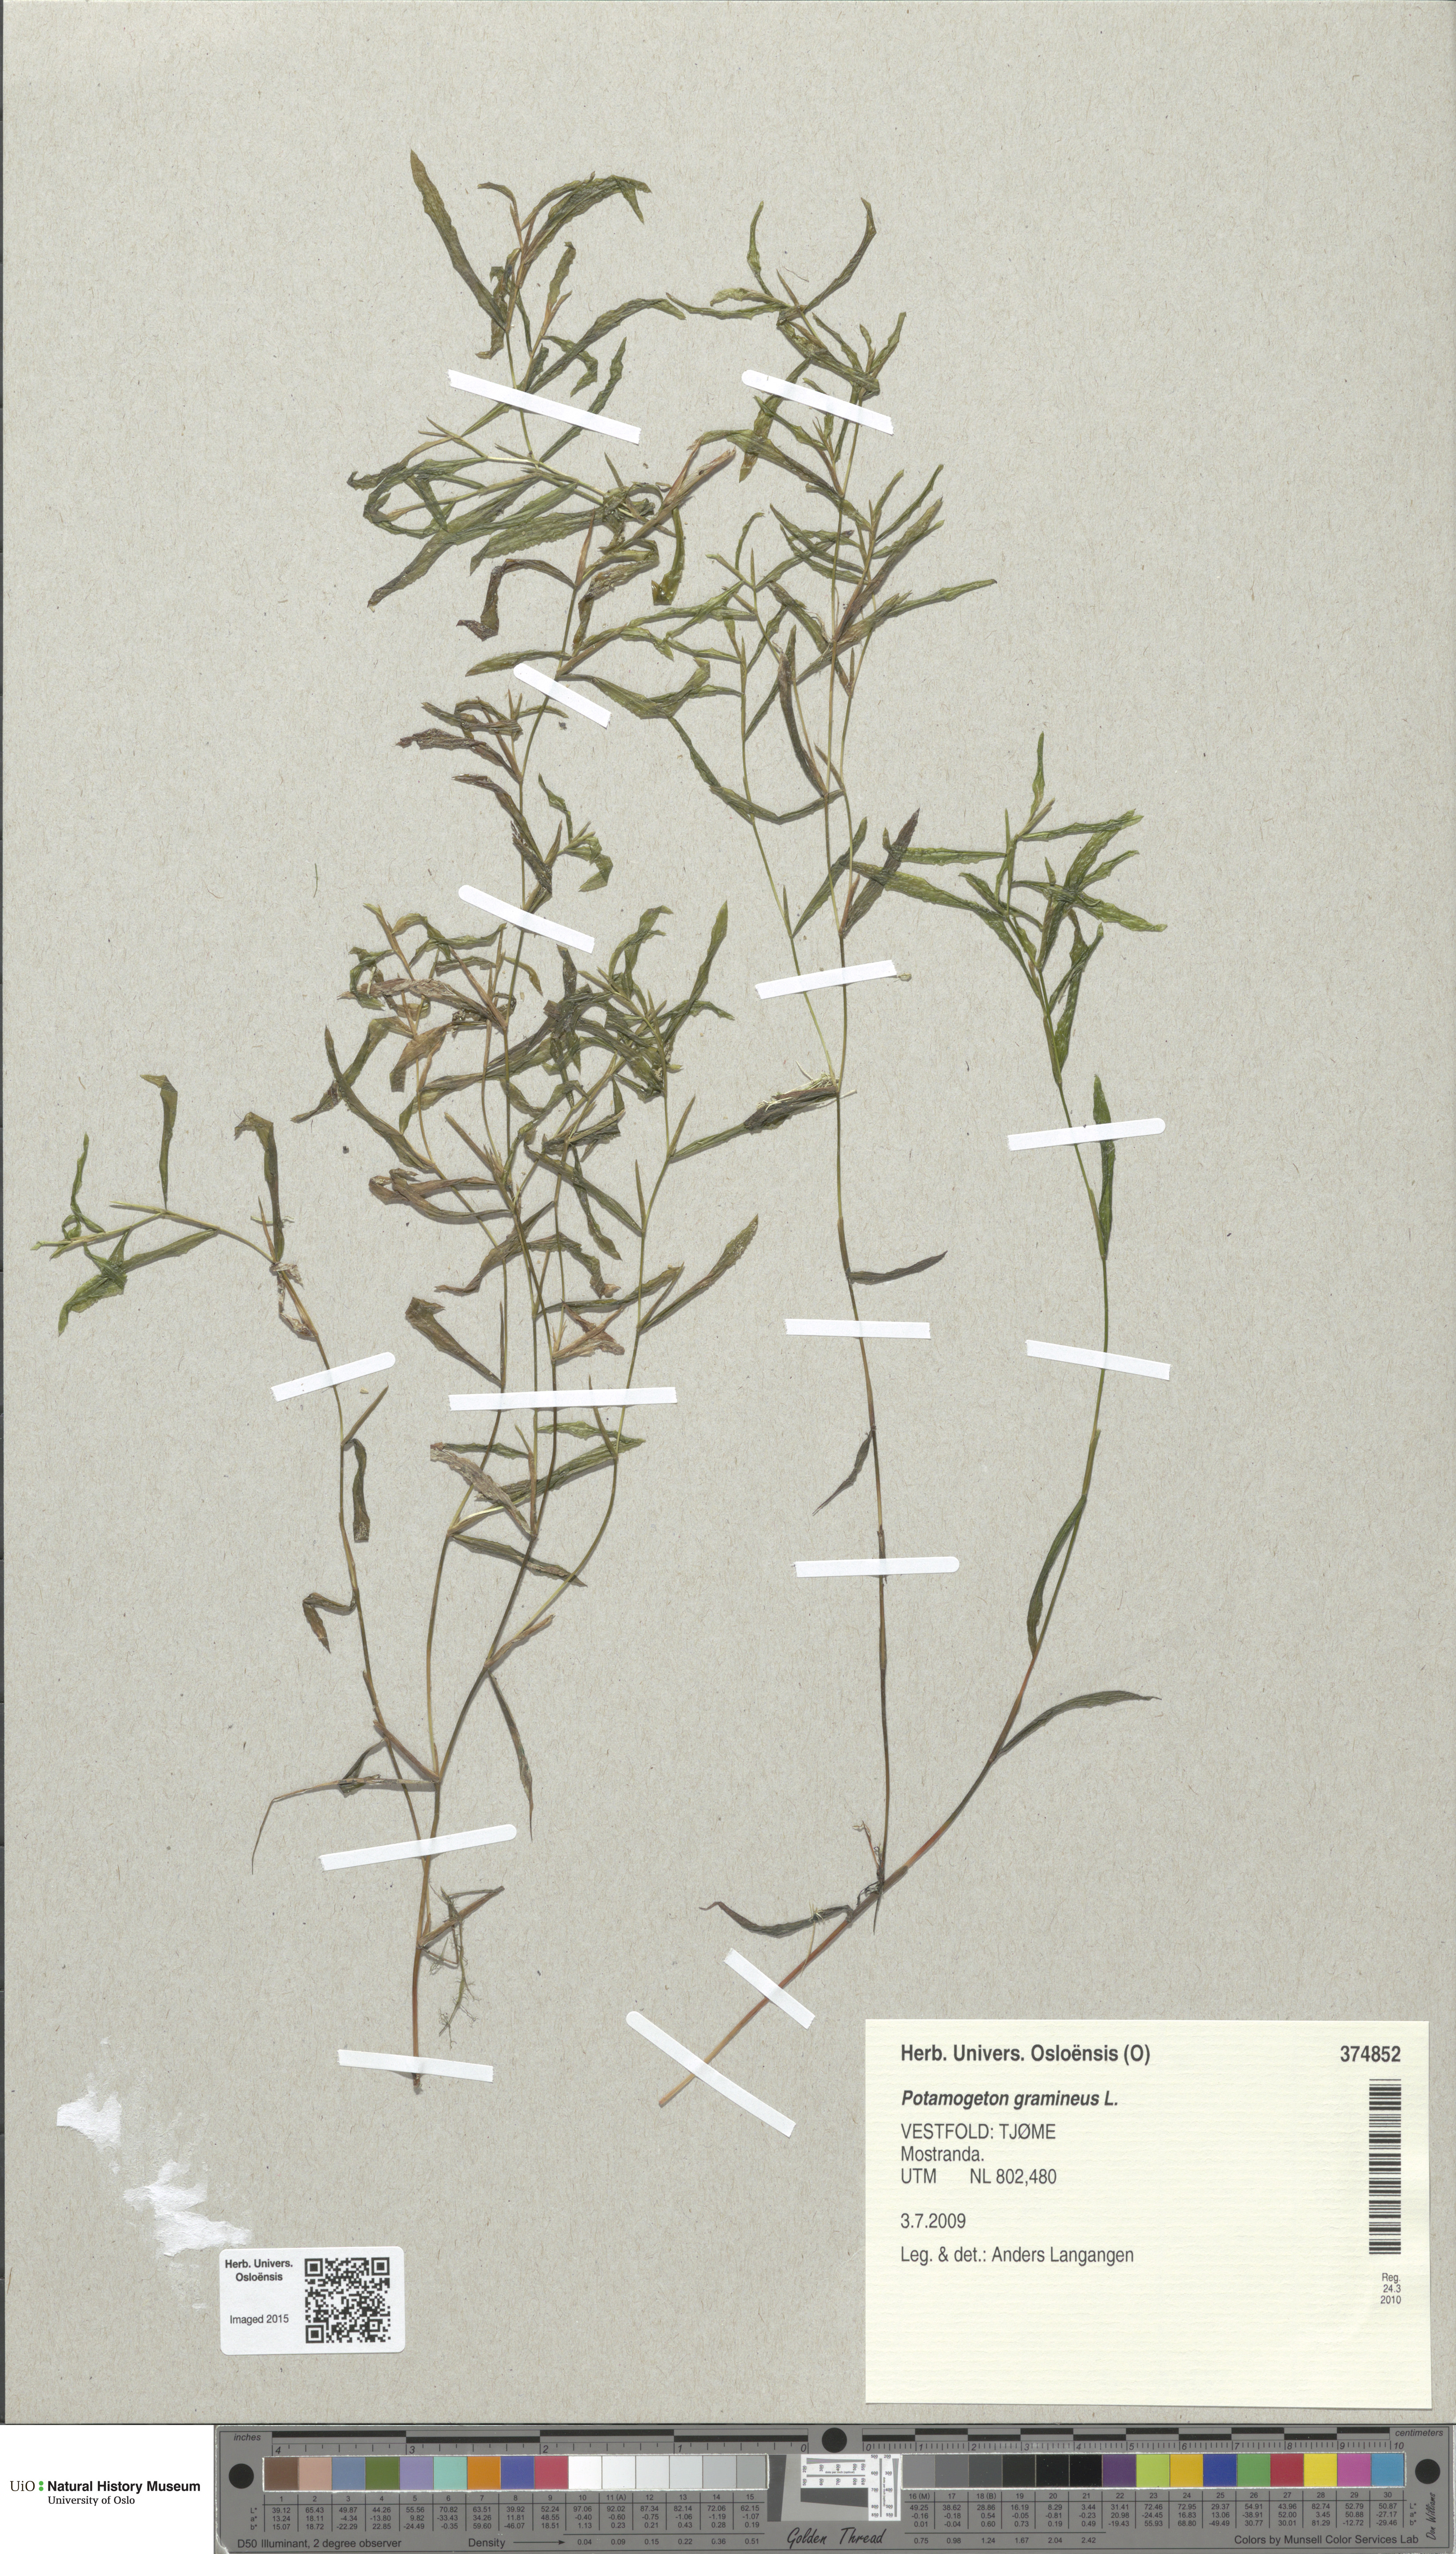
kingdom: Plantae
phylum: Tracheophyta
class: Liliopsida
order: Alismatales
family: Potamogetonaceae
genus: Potamogeton
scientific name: Potamogeton gramineus
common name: Various-leaved pondweed
